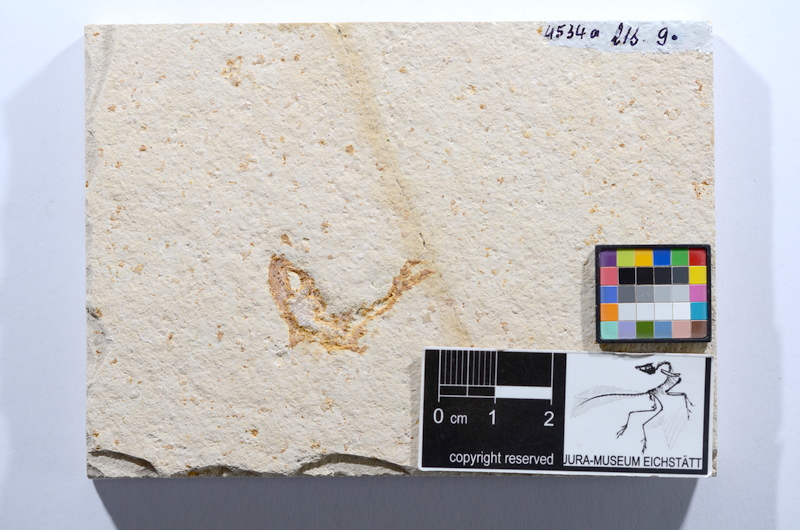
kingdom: Animalia
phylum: Chordata
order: Salmoniformes
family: Orthogonikleithridae
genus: Leptolepides
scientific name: Leptolepides sprattiformis
